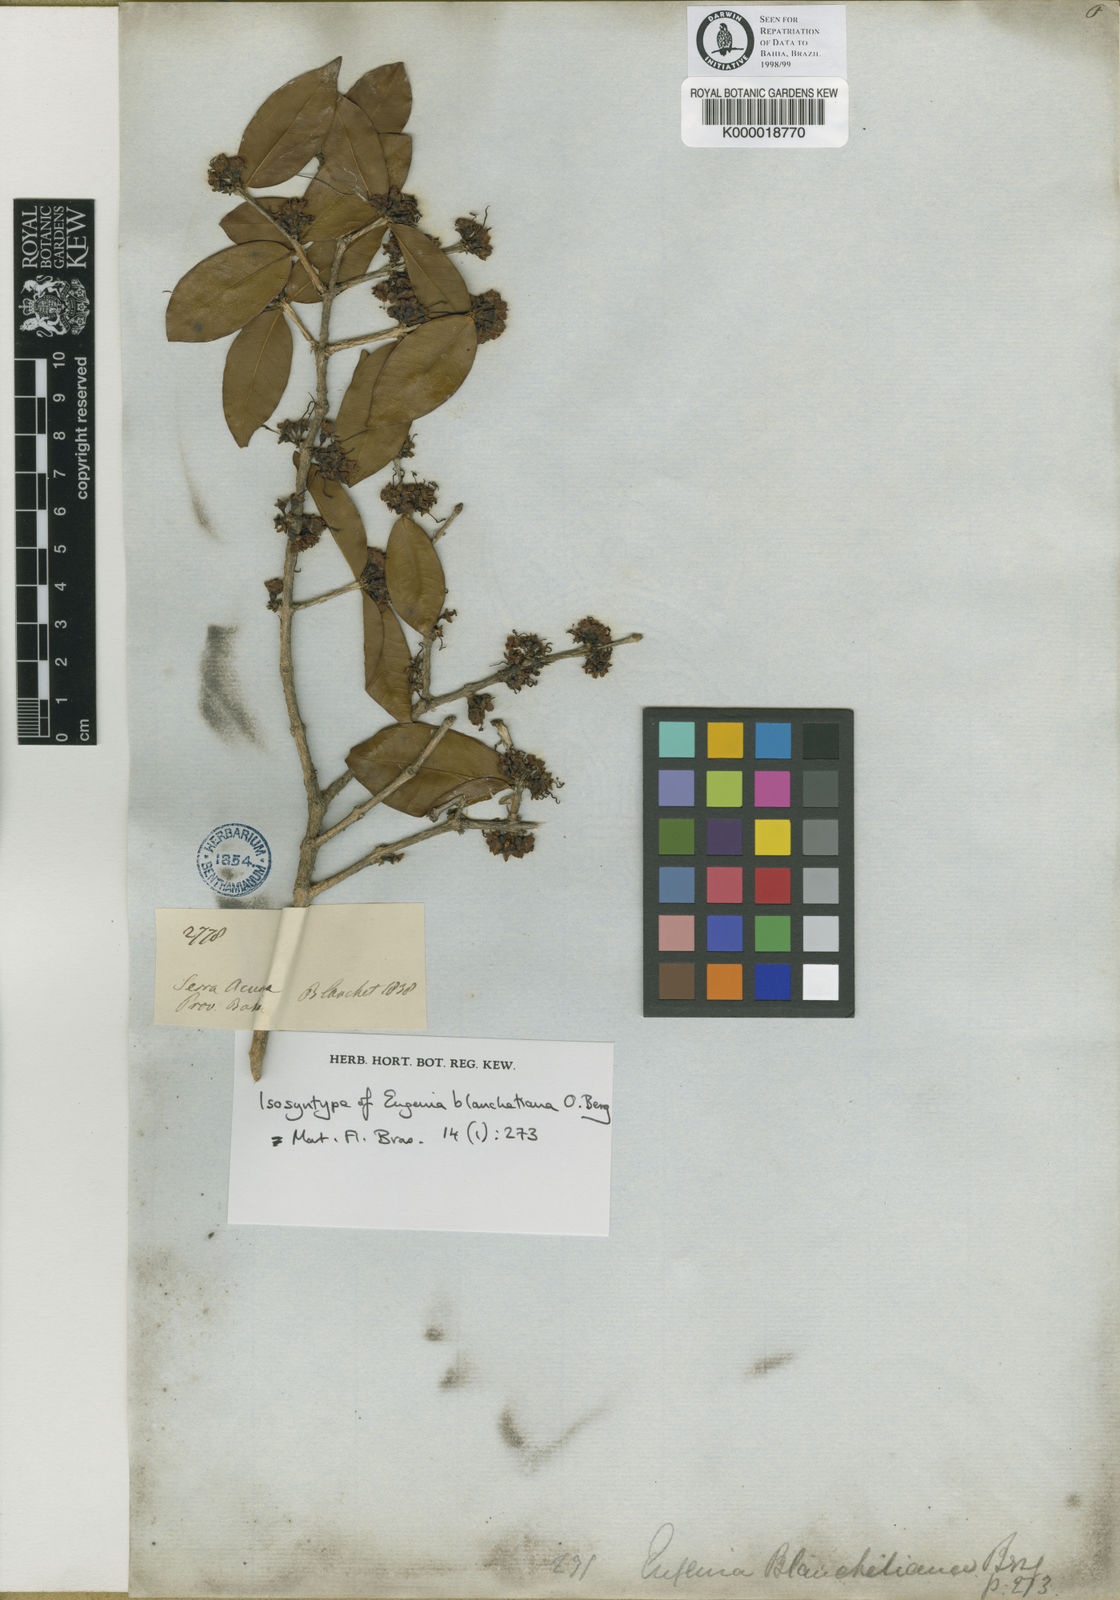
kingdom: Plantae
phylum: Tracheophyta
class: Magnoliopsida
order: Myrtales
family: Myrtaceae
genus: Eugenia
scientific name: Eugenia blanchetiana
